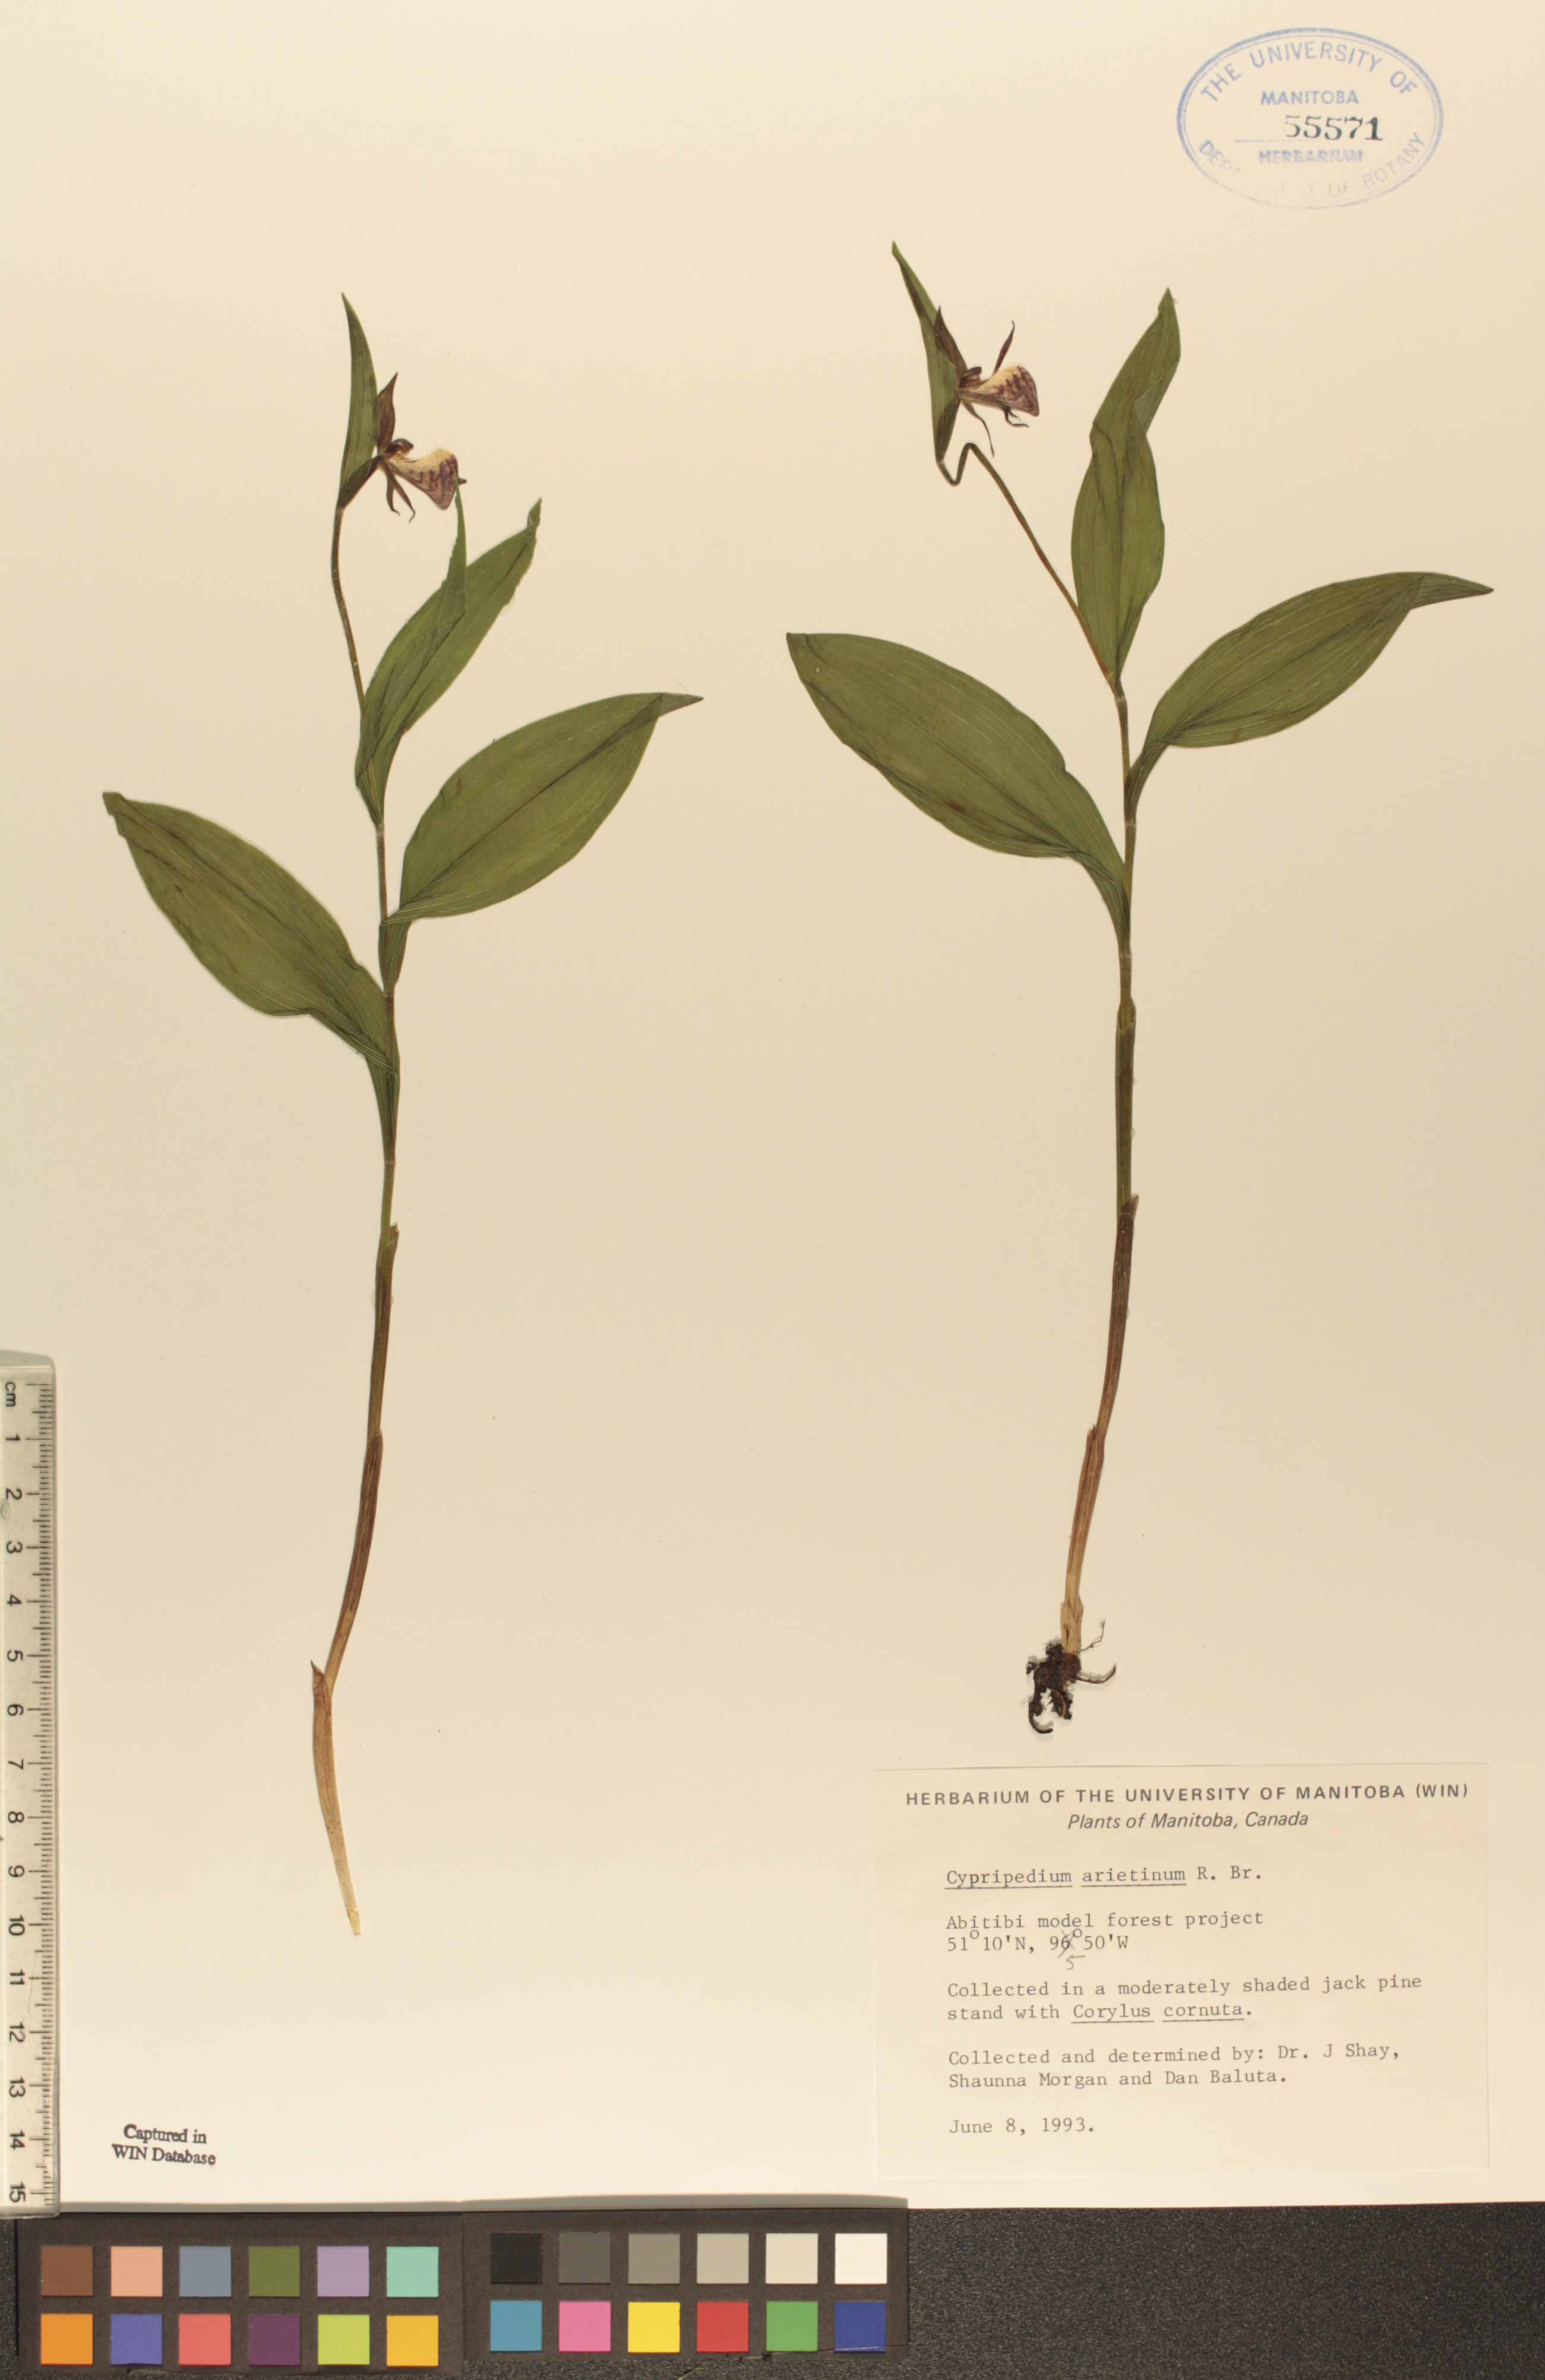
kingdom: Plantae
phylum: Tracheophyta
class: Liliopsida
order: Asparagales
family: Orchidaceae
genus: Cypripedium
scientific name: Cypripedium arietinum
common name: Ram's-head
